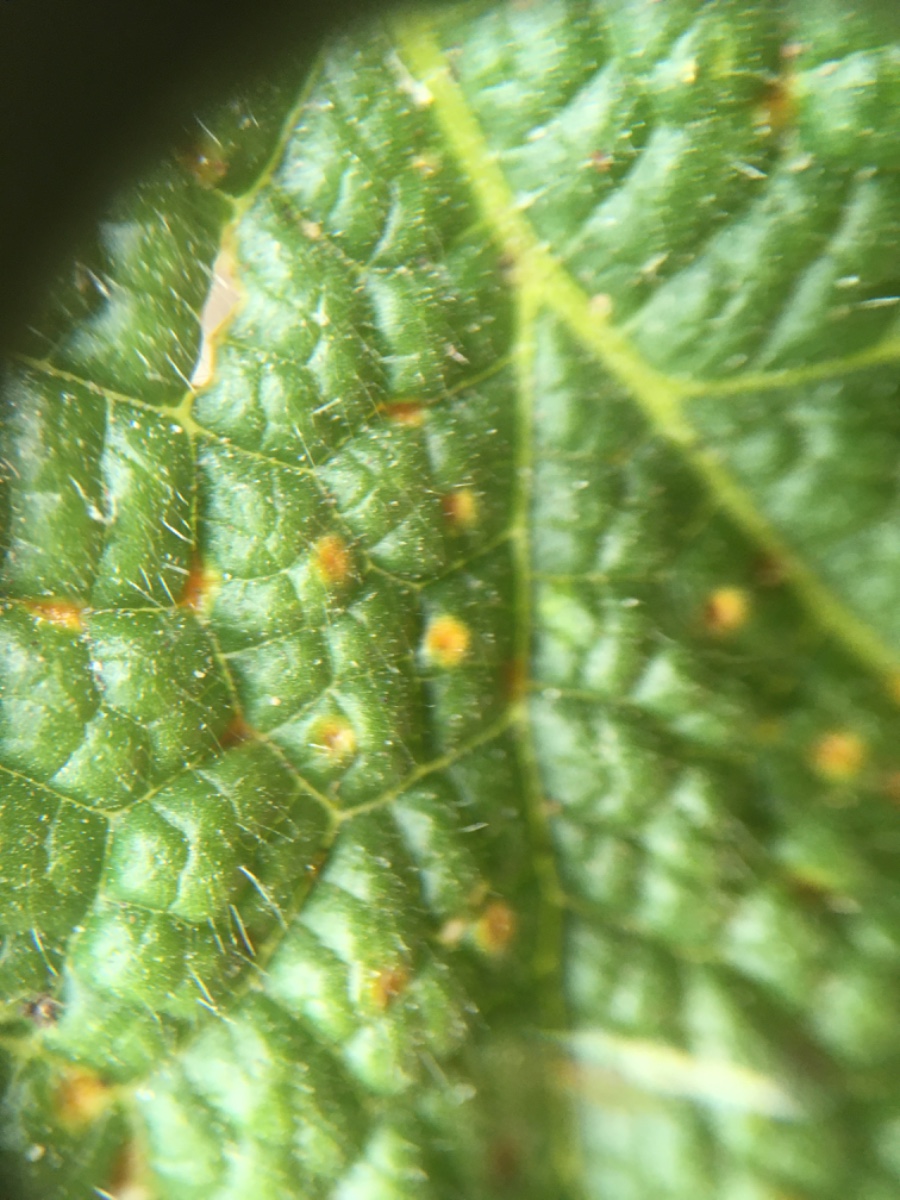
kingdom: Fungi
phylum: Basidiomycota
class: Pucciniomycetes
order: Pucciniales
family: Pucciniaceae
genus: Puccinia
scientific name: Puccinia malvacearum
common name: stokrose-tvecellerust
